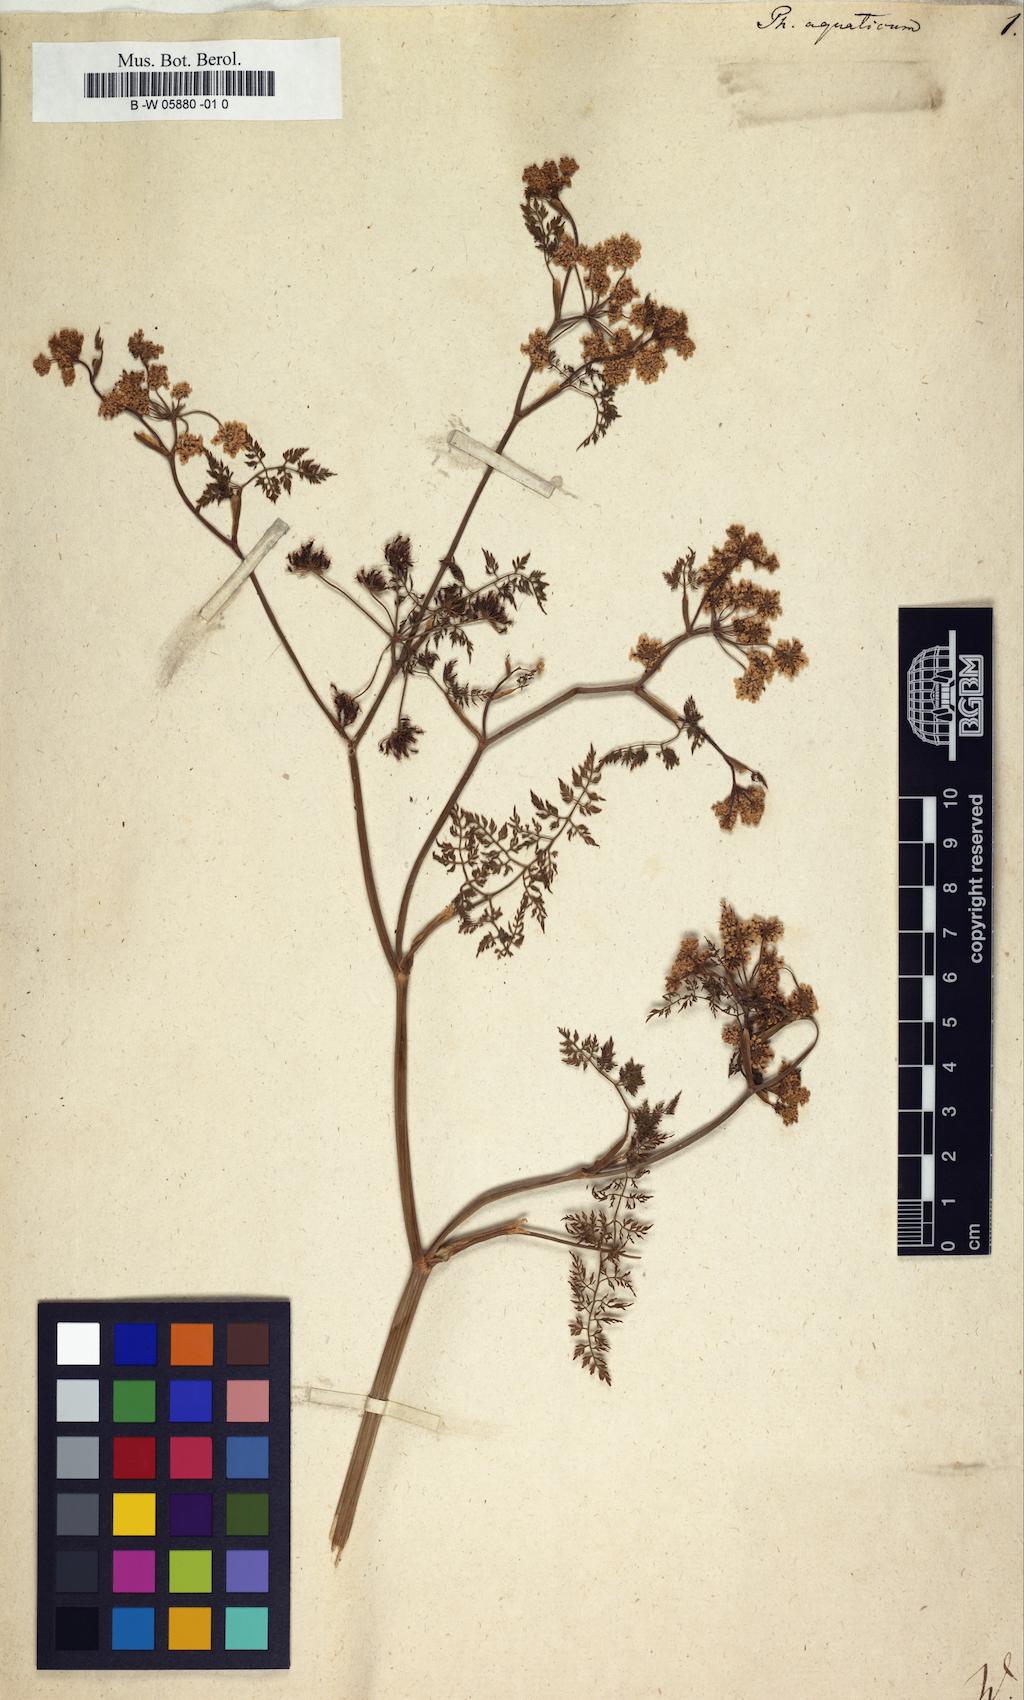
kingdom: Plantae
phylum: Tracheophyta
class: Magnoliopsida
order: Apiales
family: Apiaceae
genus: Oenanthe
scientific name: Oenanthe aquatica
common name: Fine-leaved water-dropwort
